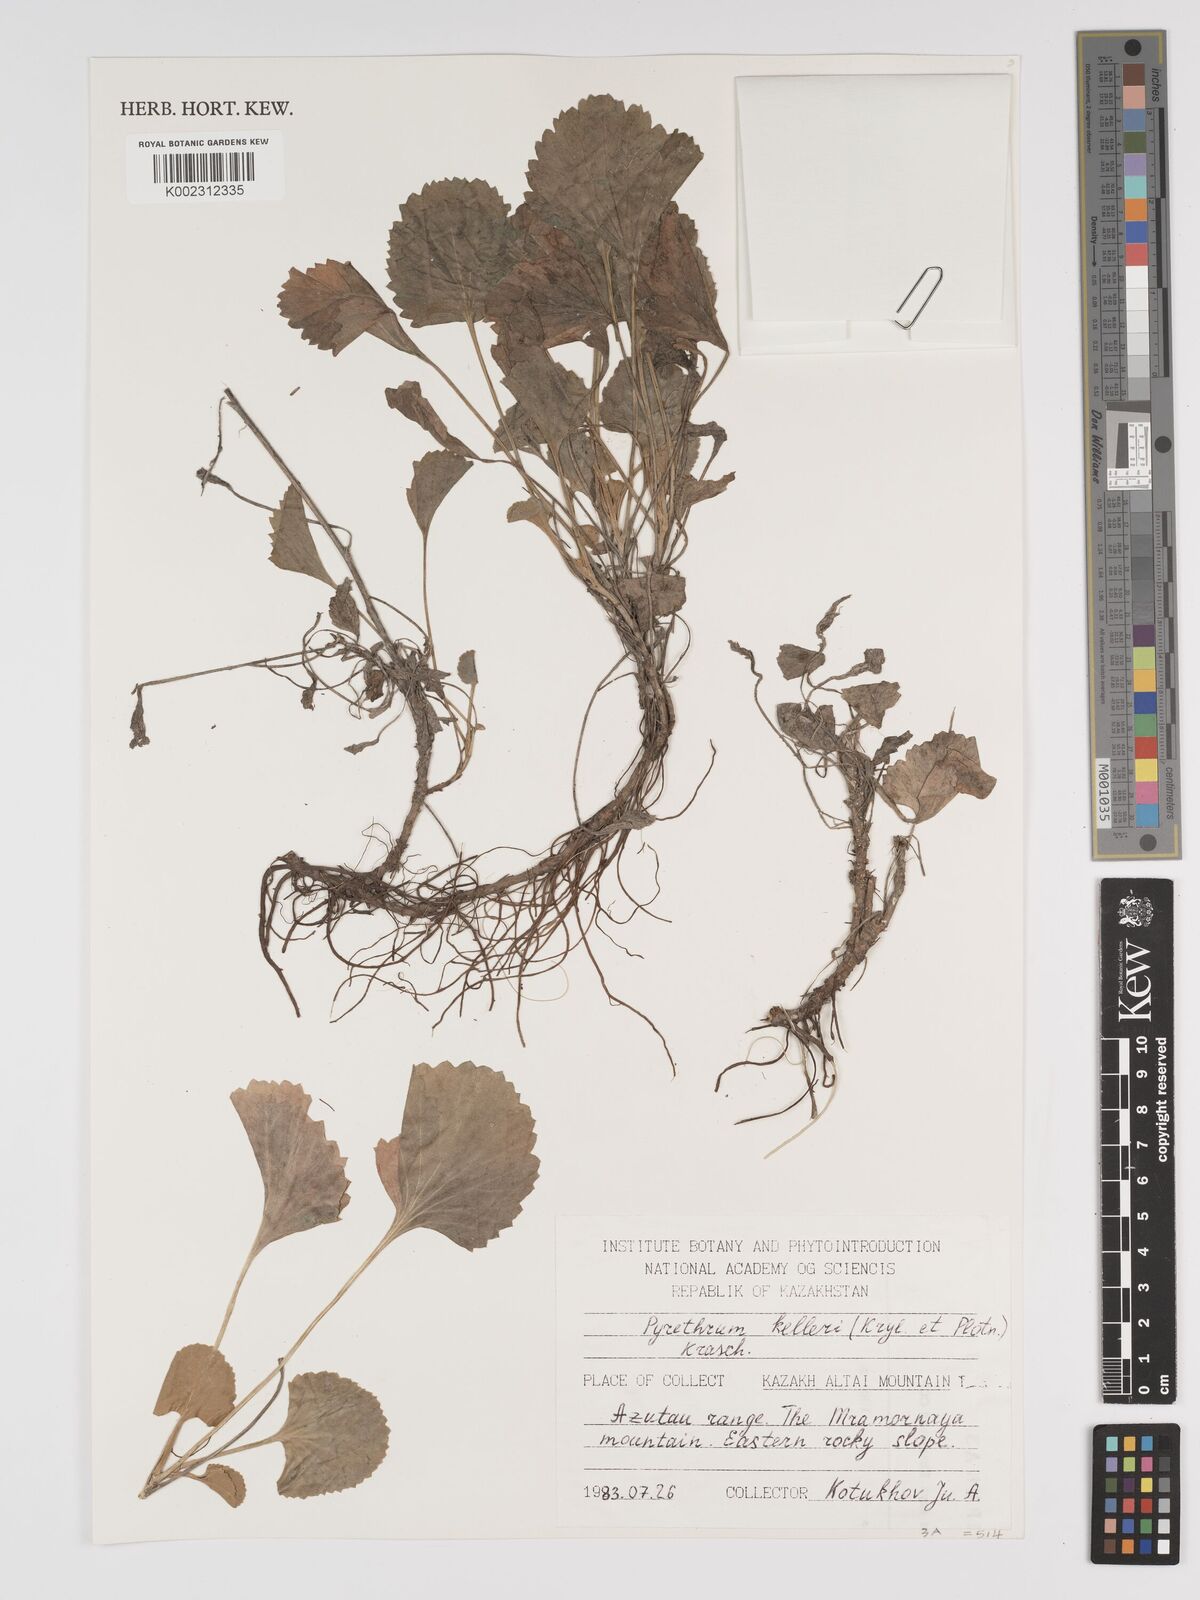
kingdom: Plantae
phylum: Tracheophyta
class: Magnoliopsida
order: Asterales
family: Asteraceae
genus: Tanacetum
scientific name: Tanacetum kelleri
